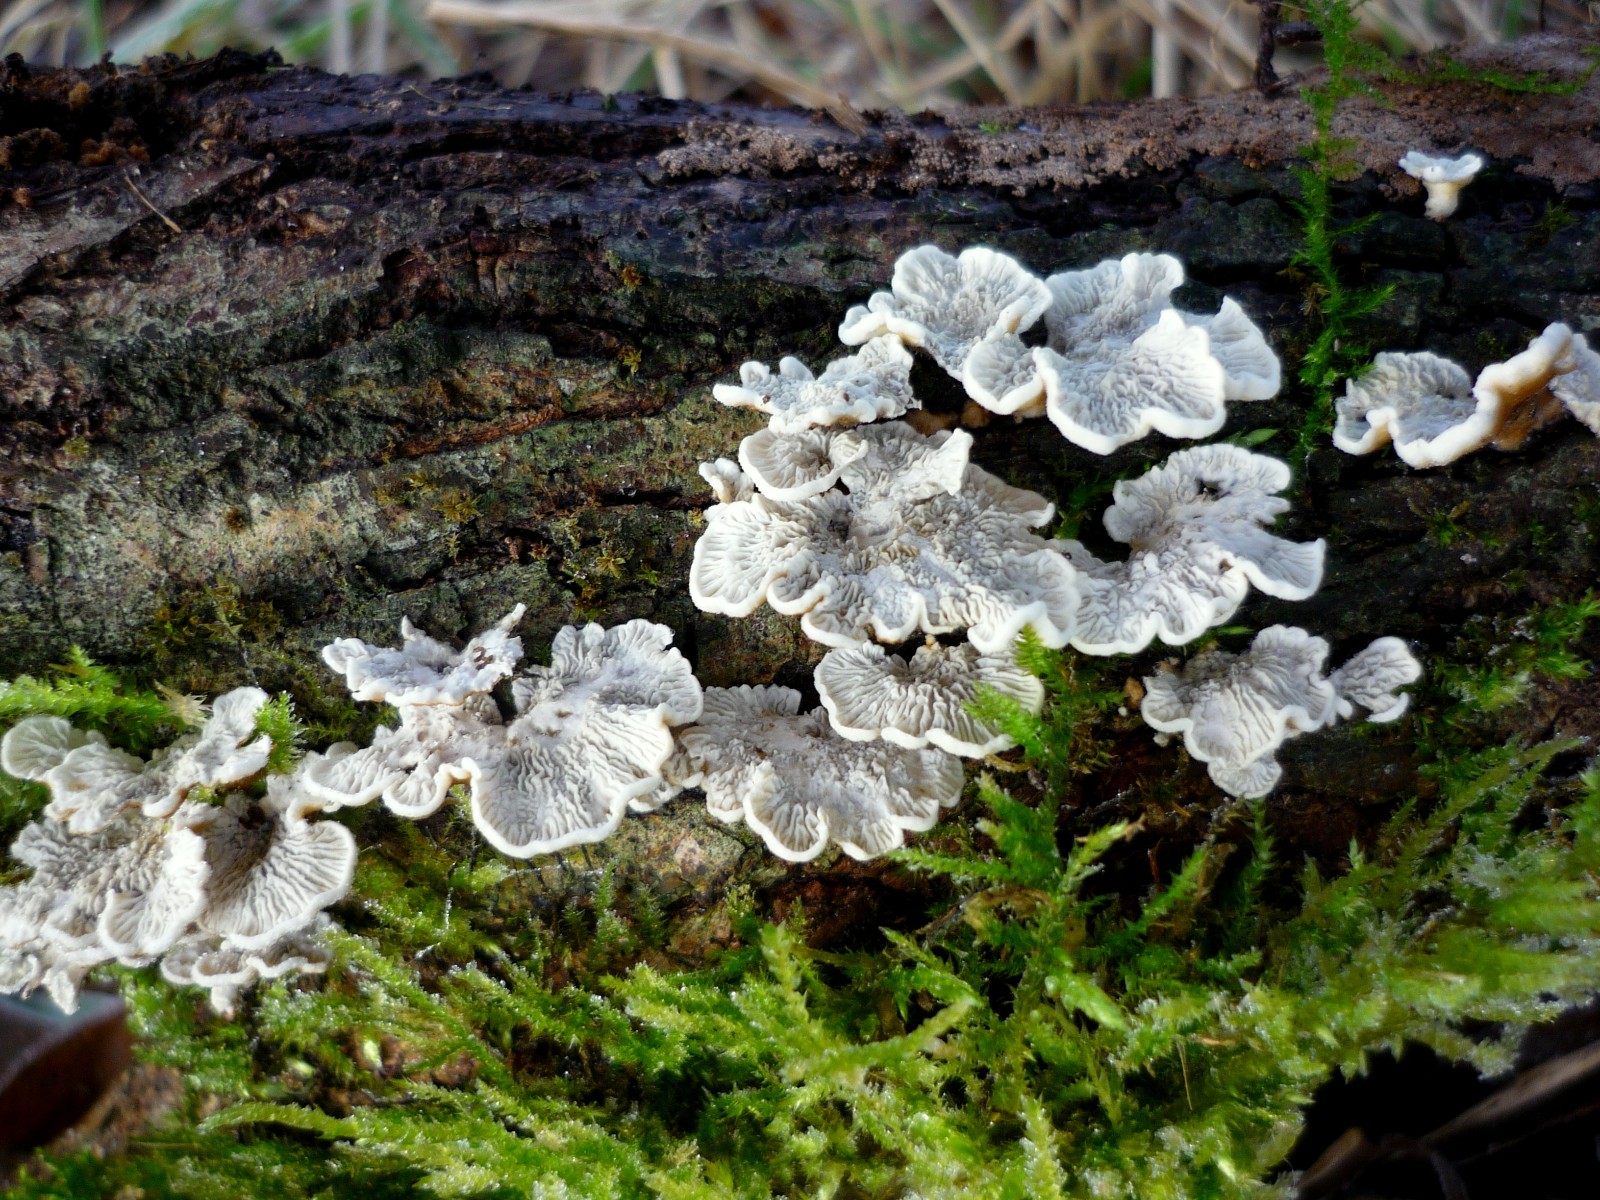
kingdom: Fungi
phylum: Basidiomycota
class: Agaricomycetes
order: Amylocorticiales
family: Amylocorticiaceae
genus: Plicaturopsis
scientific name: Plicaturopsis crispa
